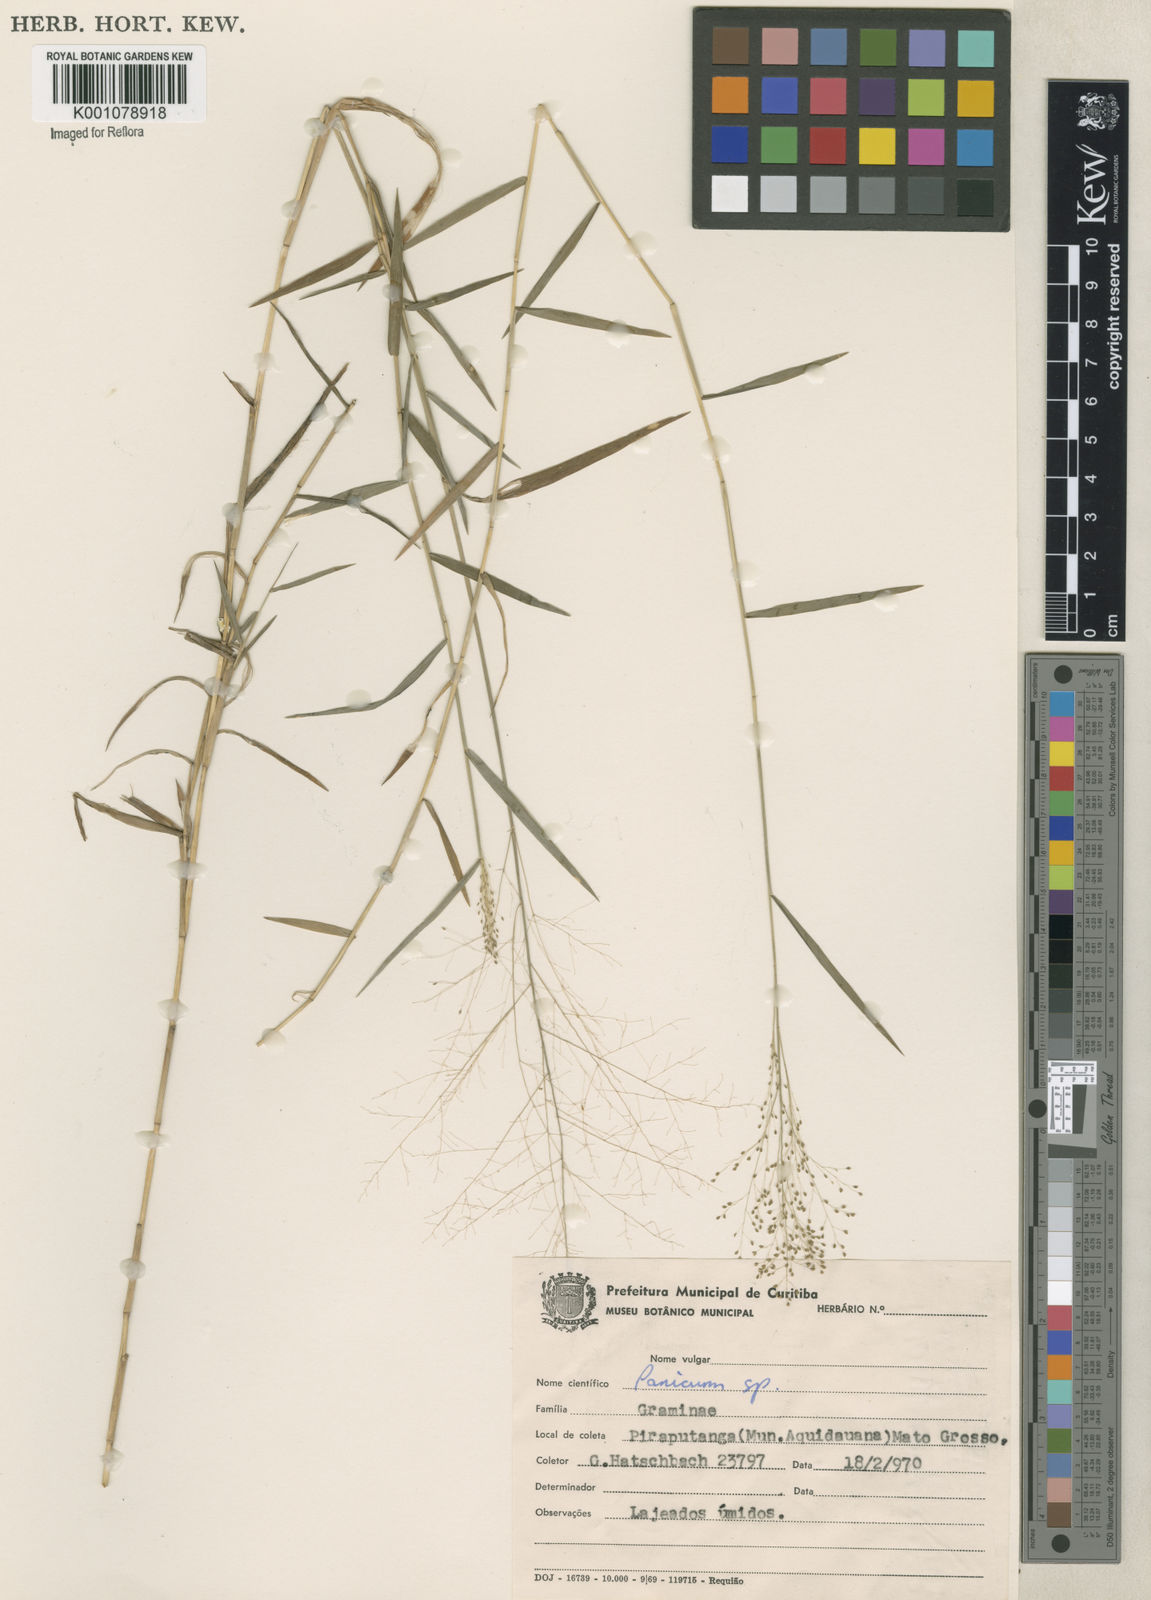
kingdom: Plantae
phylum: Tracheophyta
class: Liliopsida
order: Poales
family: Poaceae
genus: Trichanthecium
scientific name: Trichanthecium cyanescens
